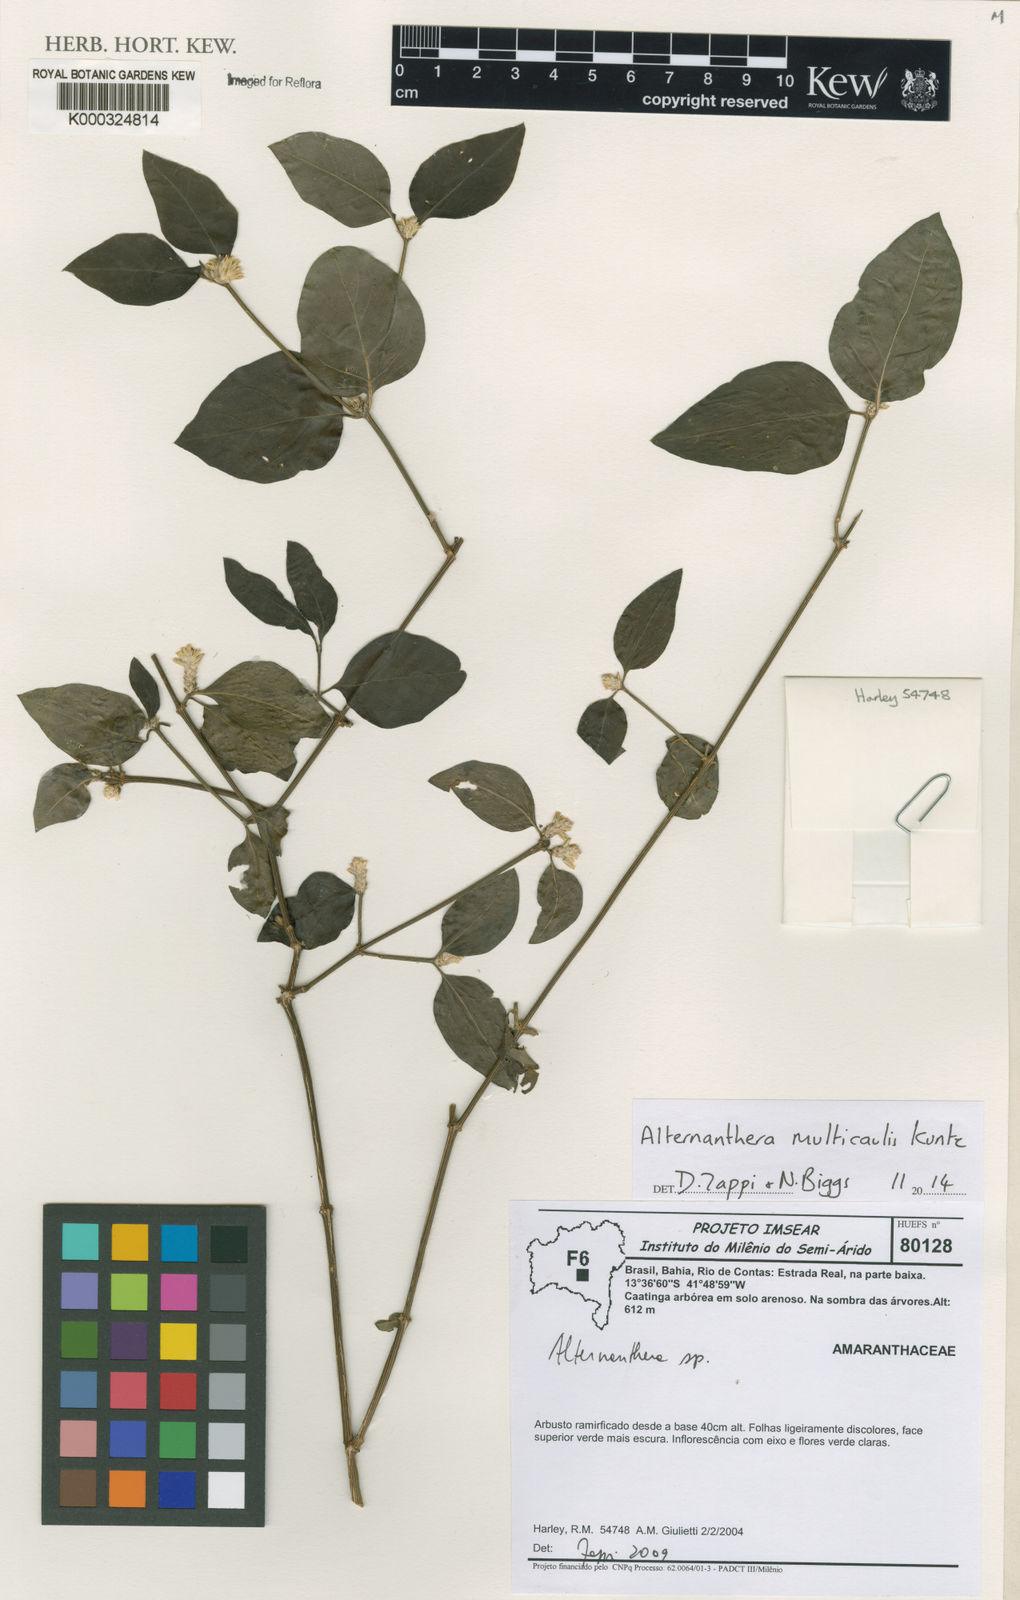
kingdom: Plantae
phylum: Tracheophyta
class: Magnoliopsida
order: Caryophyllales
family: Amaranthaceae
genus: Alternanthera
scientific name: Alternanthera
